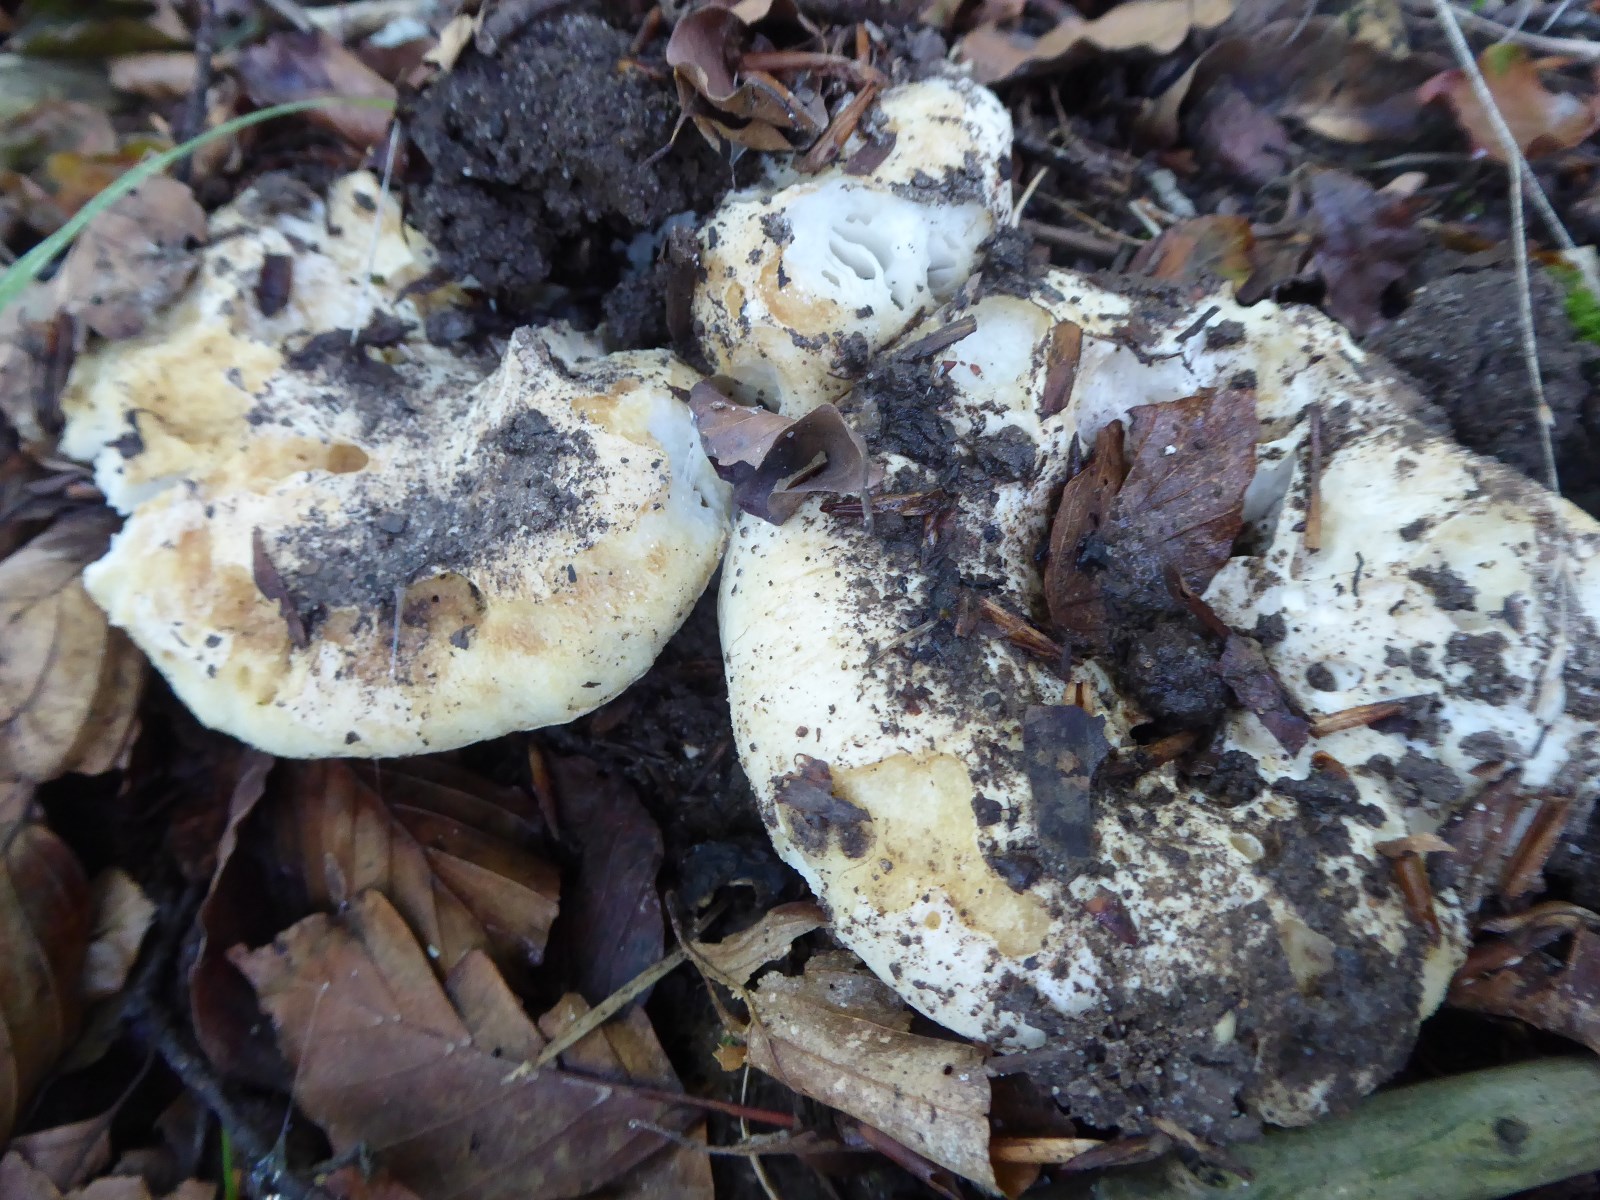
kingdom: Fungi
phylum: Basidiomycota
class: Agaricomycetes
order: Russulales
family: Russulaceae
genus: Russula
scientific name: Russula chloroides
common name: grønhalset tragt-skørhat
